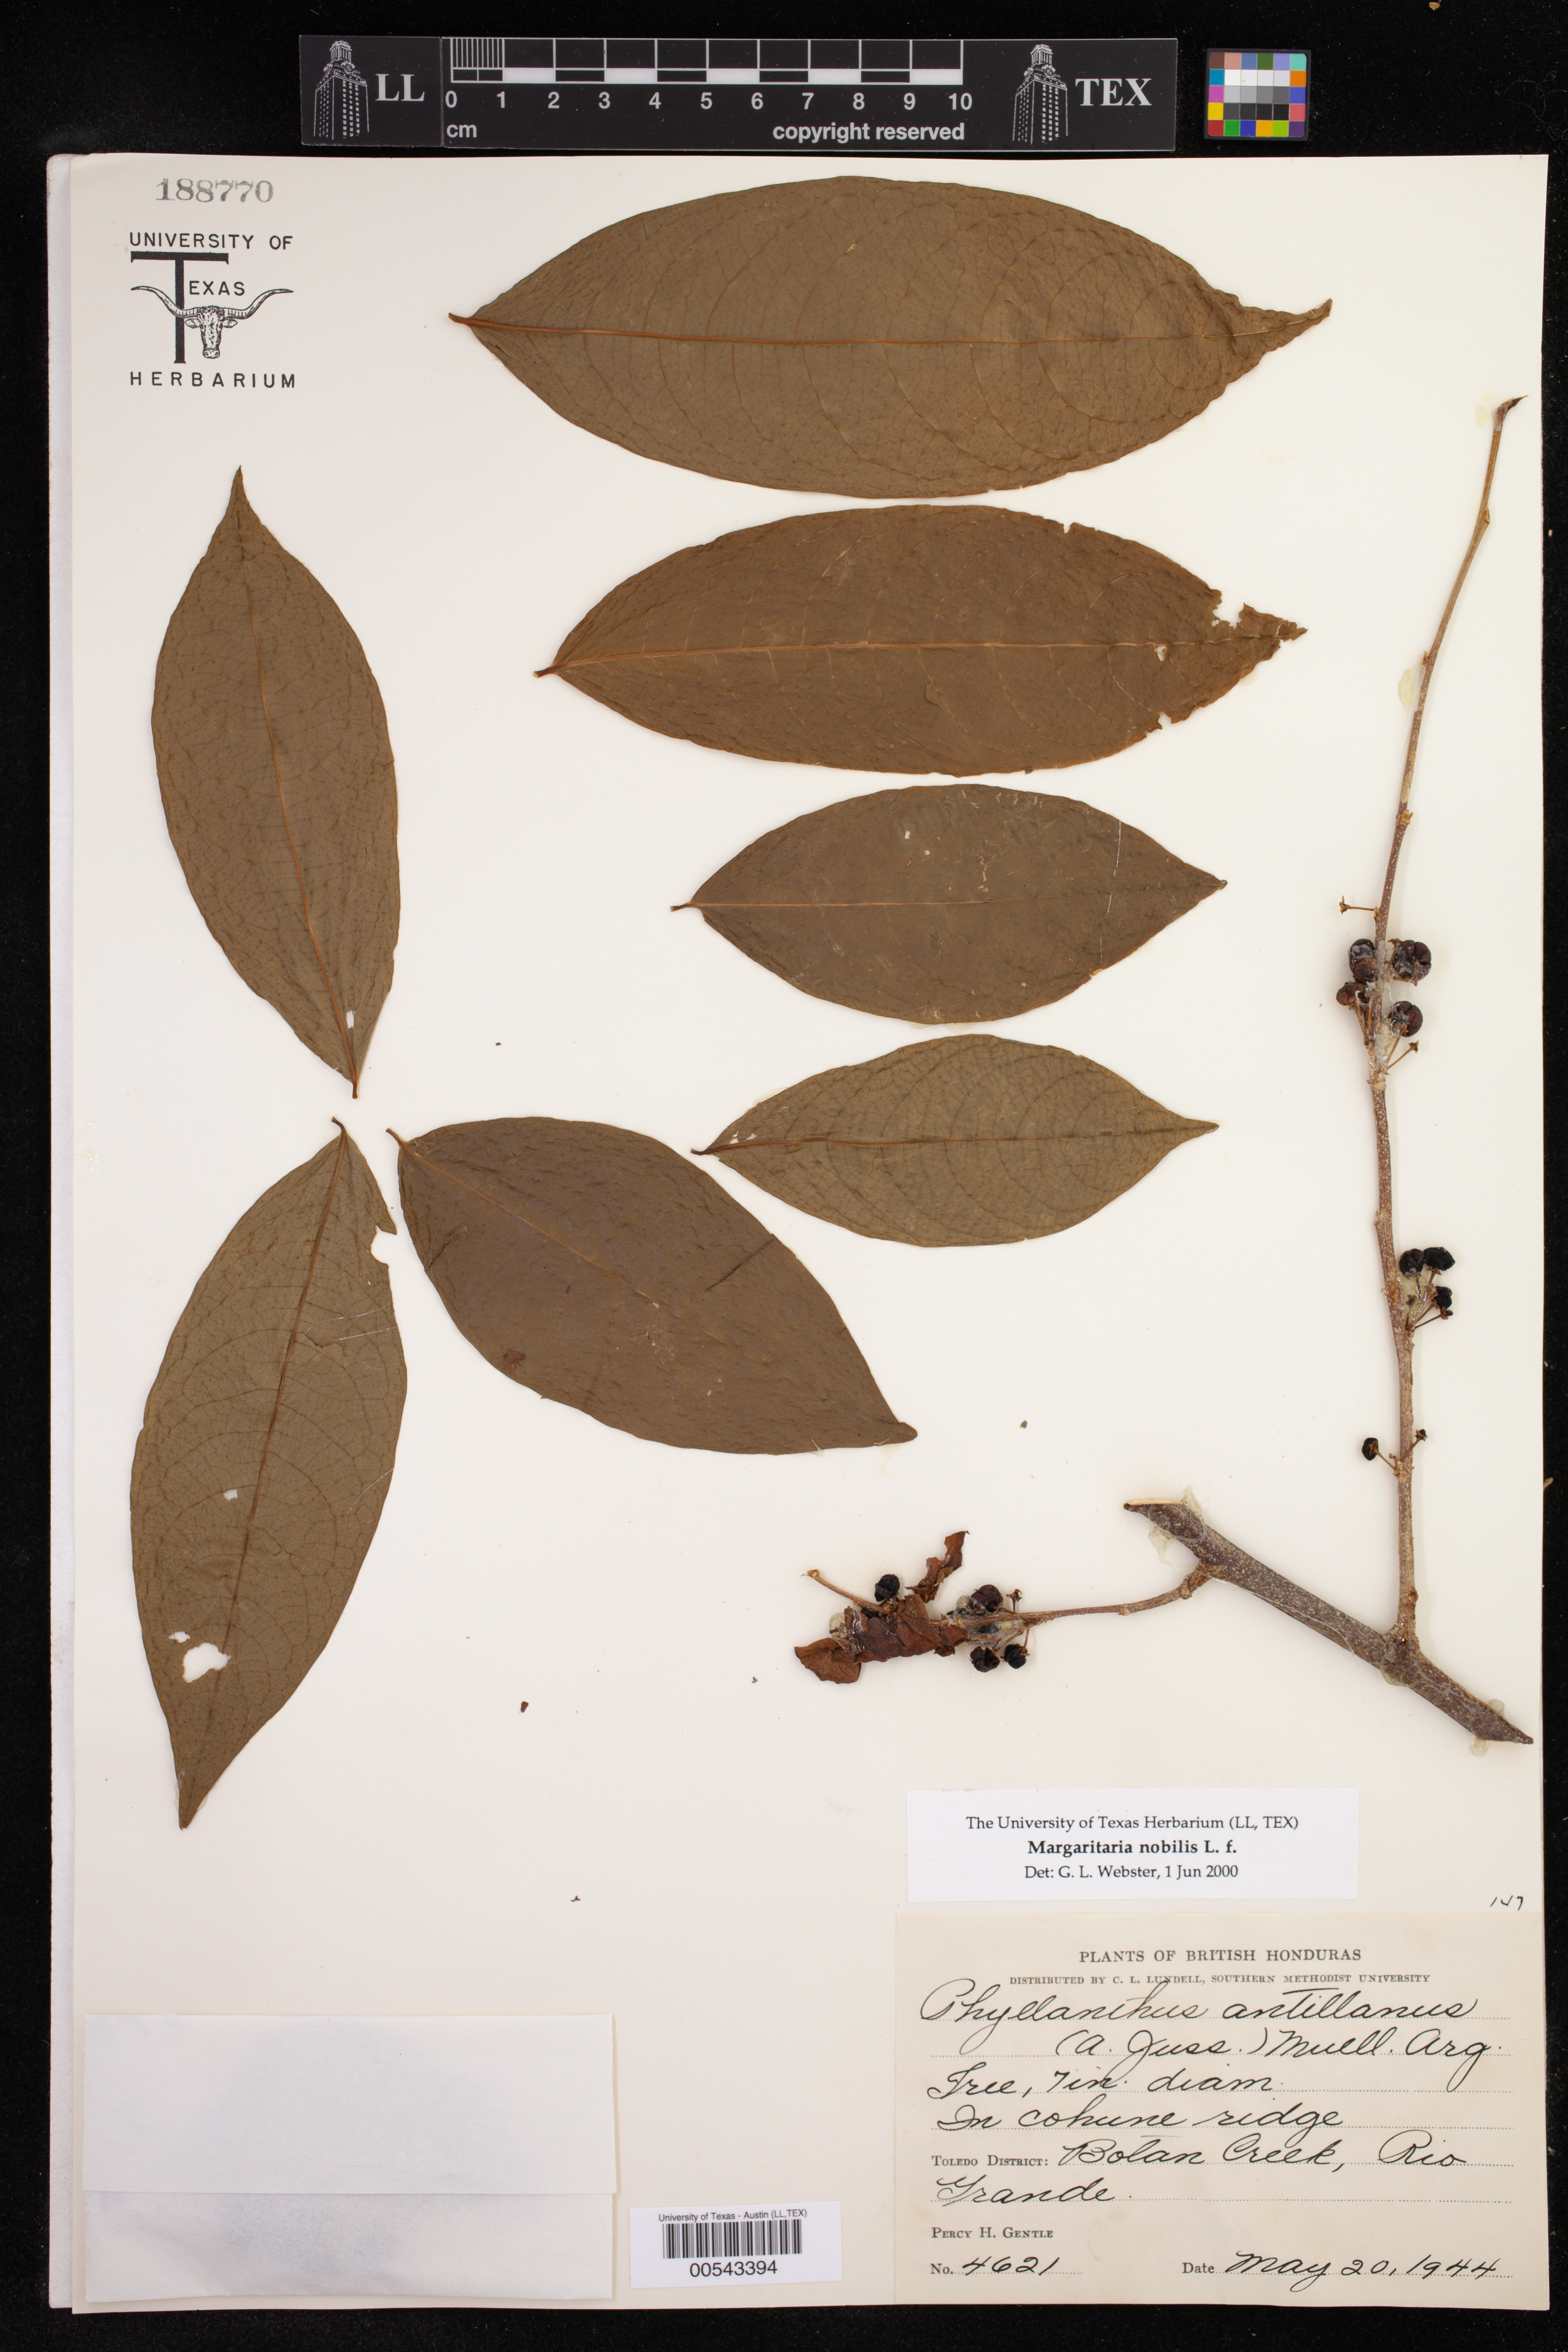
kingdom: Plantae
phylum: Tracheophyta
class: Magnoliopsida
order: Malpighiales
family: Phyllanthaceae
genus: Margaritaria
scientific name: Margaritaria nobilis
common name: Goose berry
